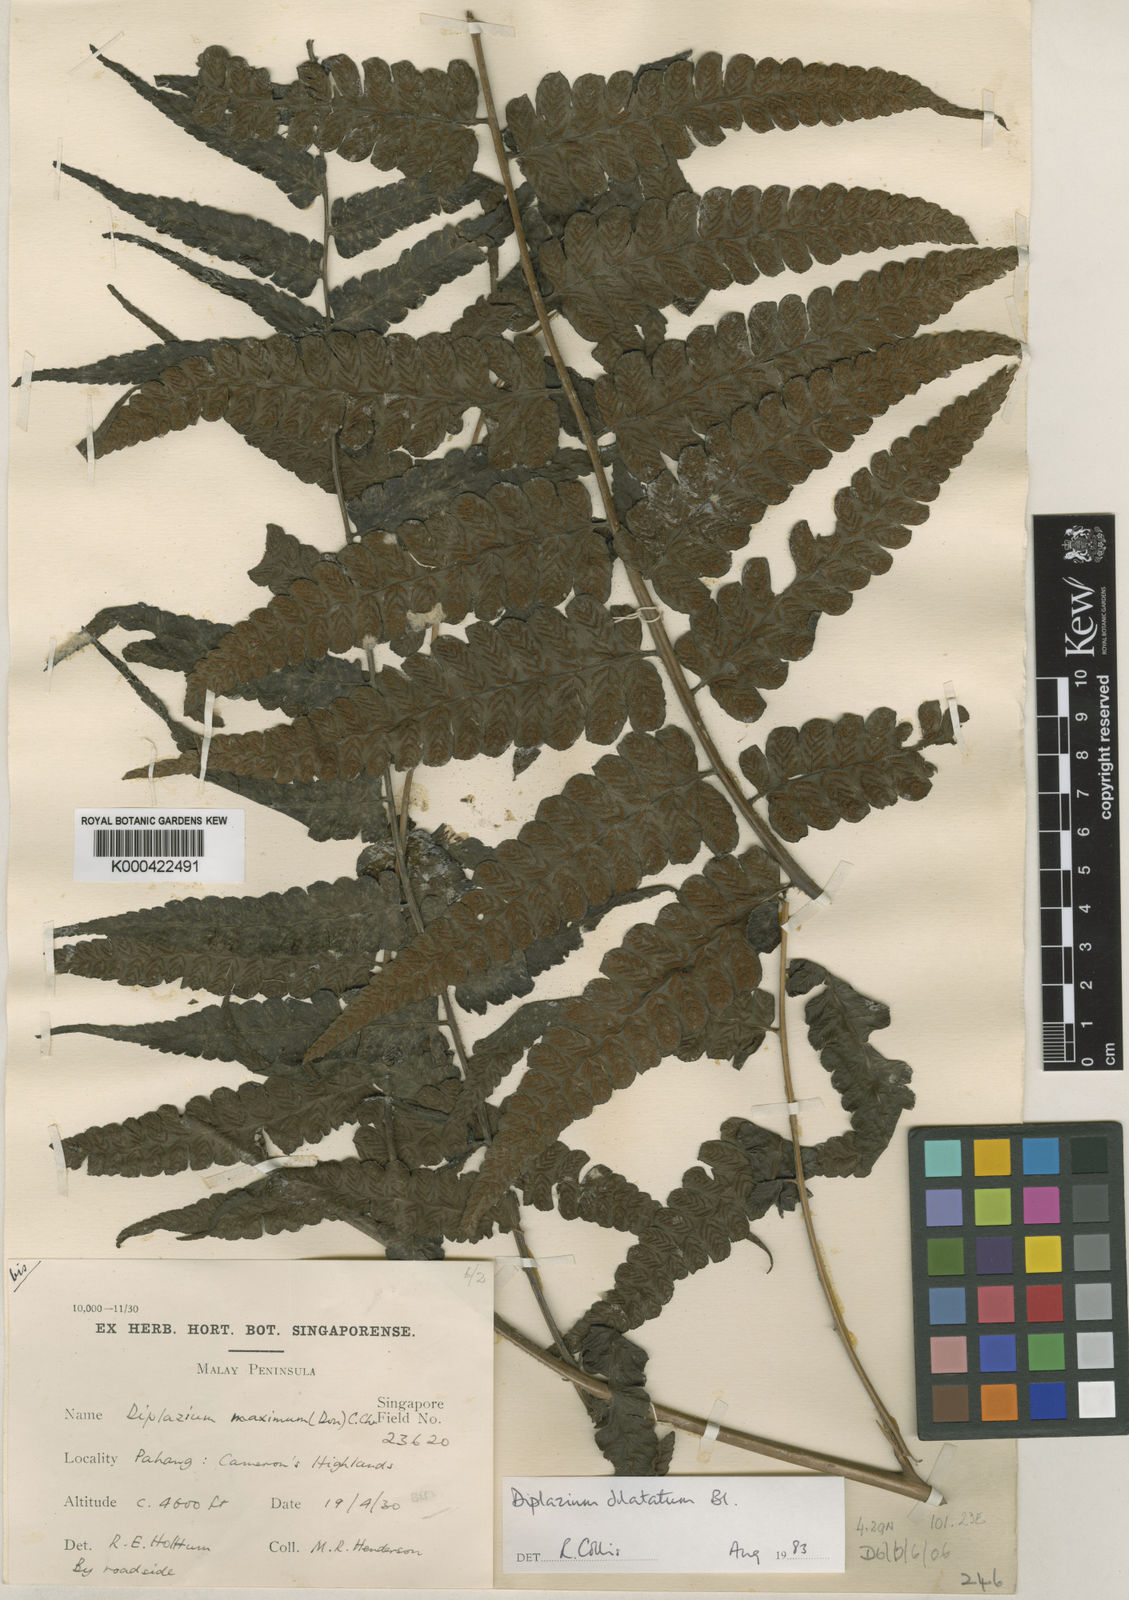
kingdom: Plantae
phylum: Tracheophyta
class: Polypodiopsida
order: Polypodiales
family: Athyriaceae
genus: Diplazium
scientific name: Diplazium dilatatum
